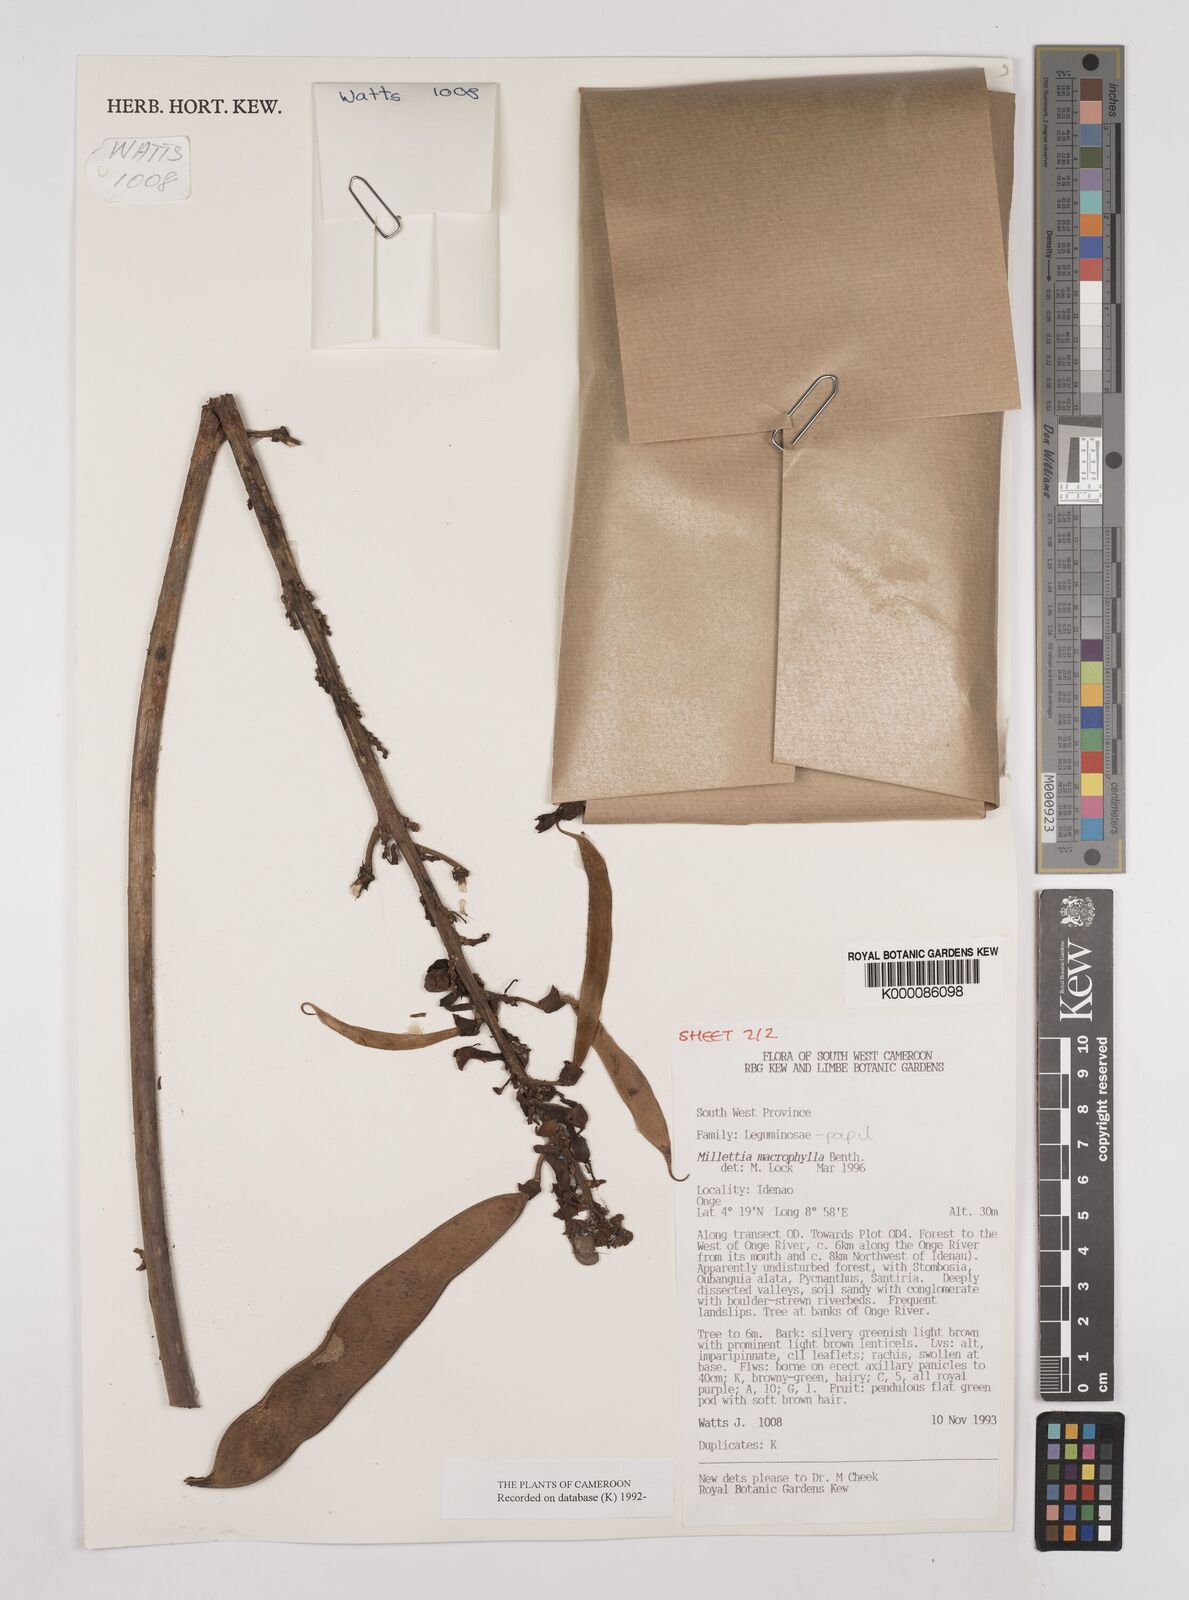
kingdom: Plantae
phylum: Tracheophyta
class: Magnoliopsida
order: Fabales
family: Fabaceae
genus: Millettia
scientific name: Millettia macrophylla
